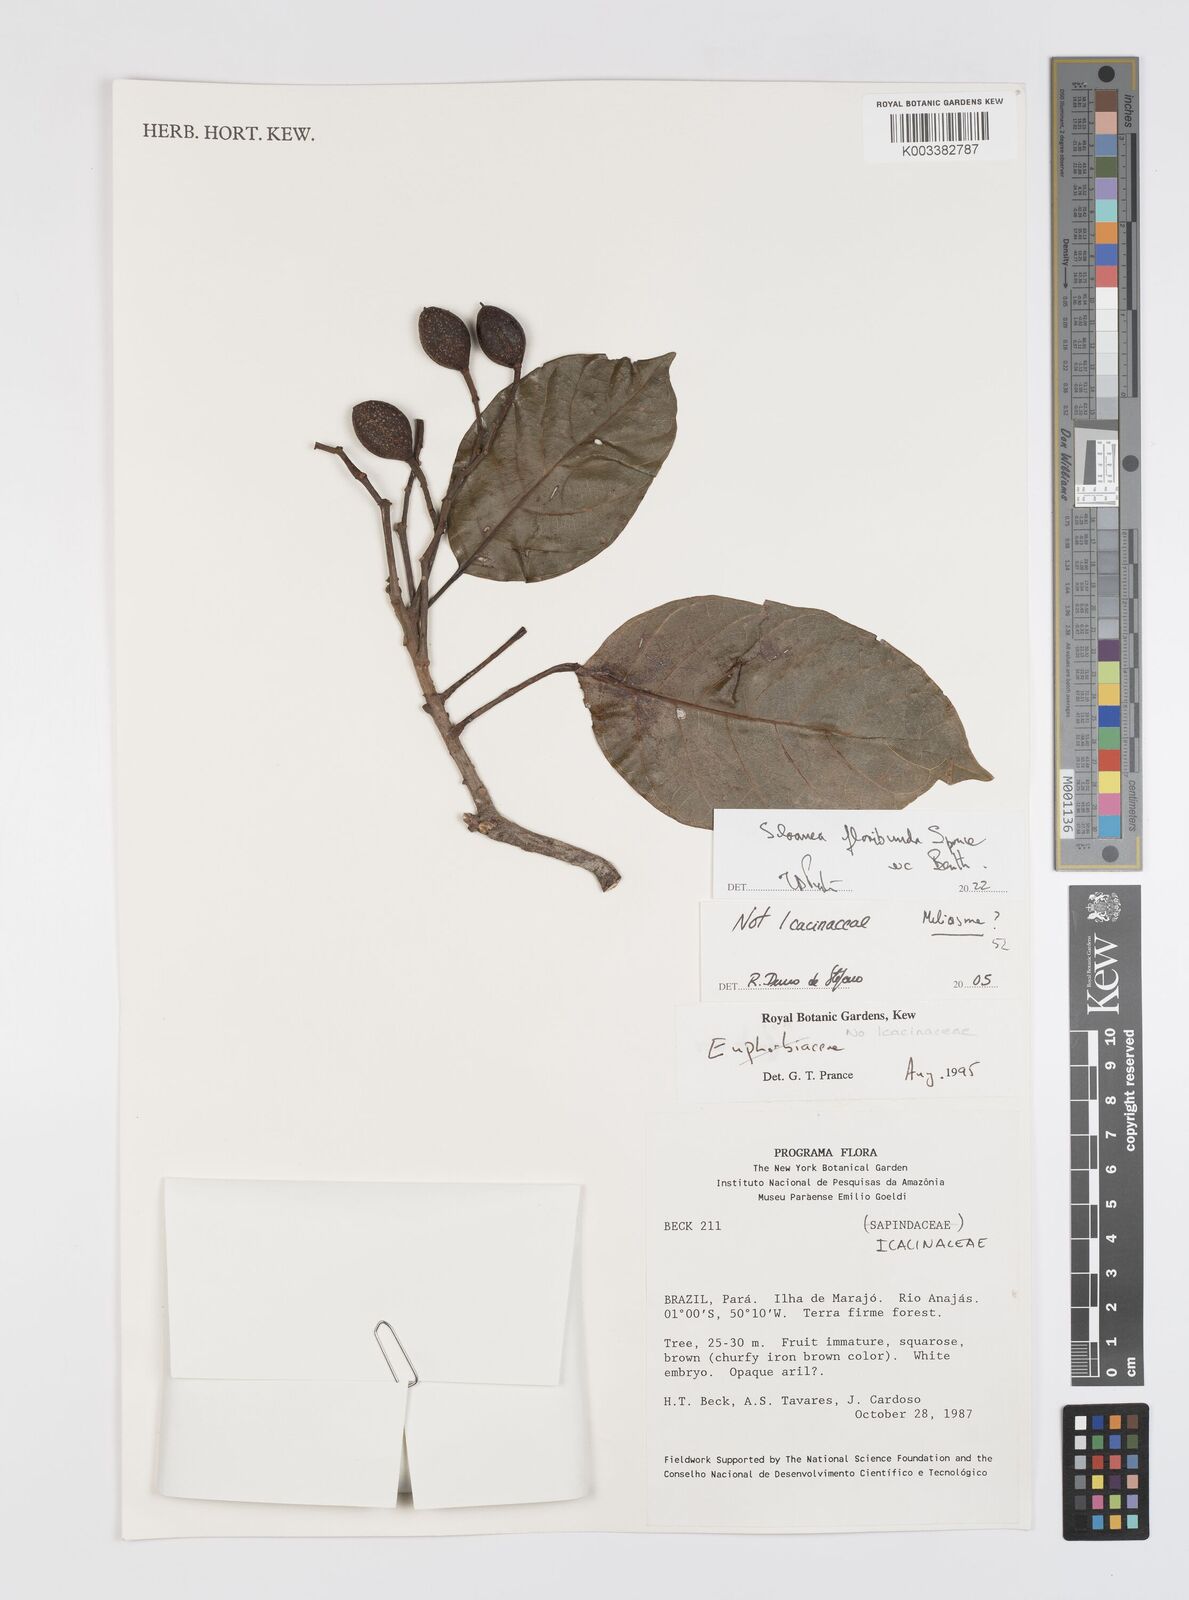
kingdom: Plantae
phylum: Tracheophyta
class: Magnoliopsida
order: Oxalidales
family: Elaeocarpaceae
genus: Sloanea
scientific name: Sloanea floribunda
